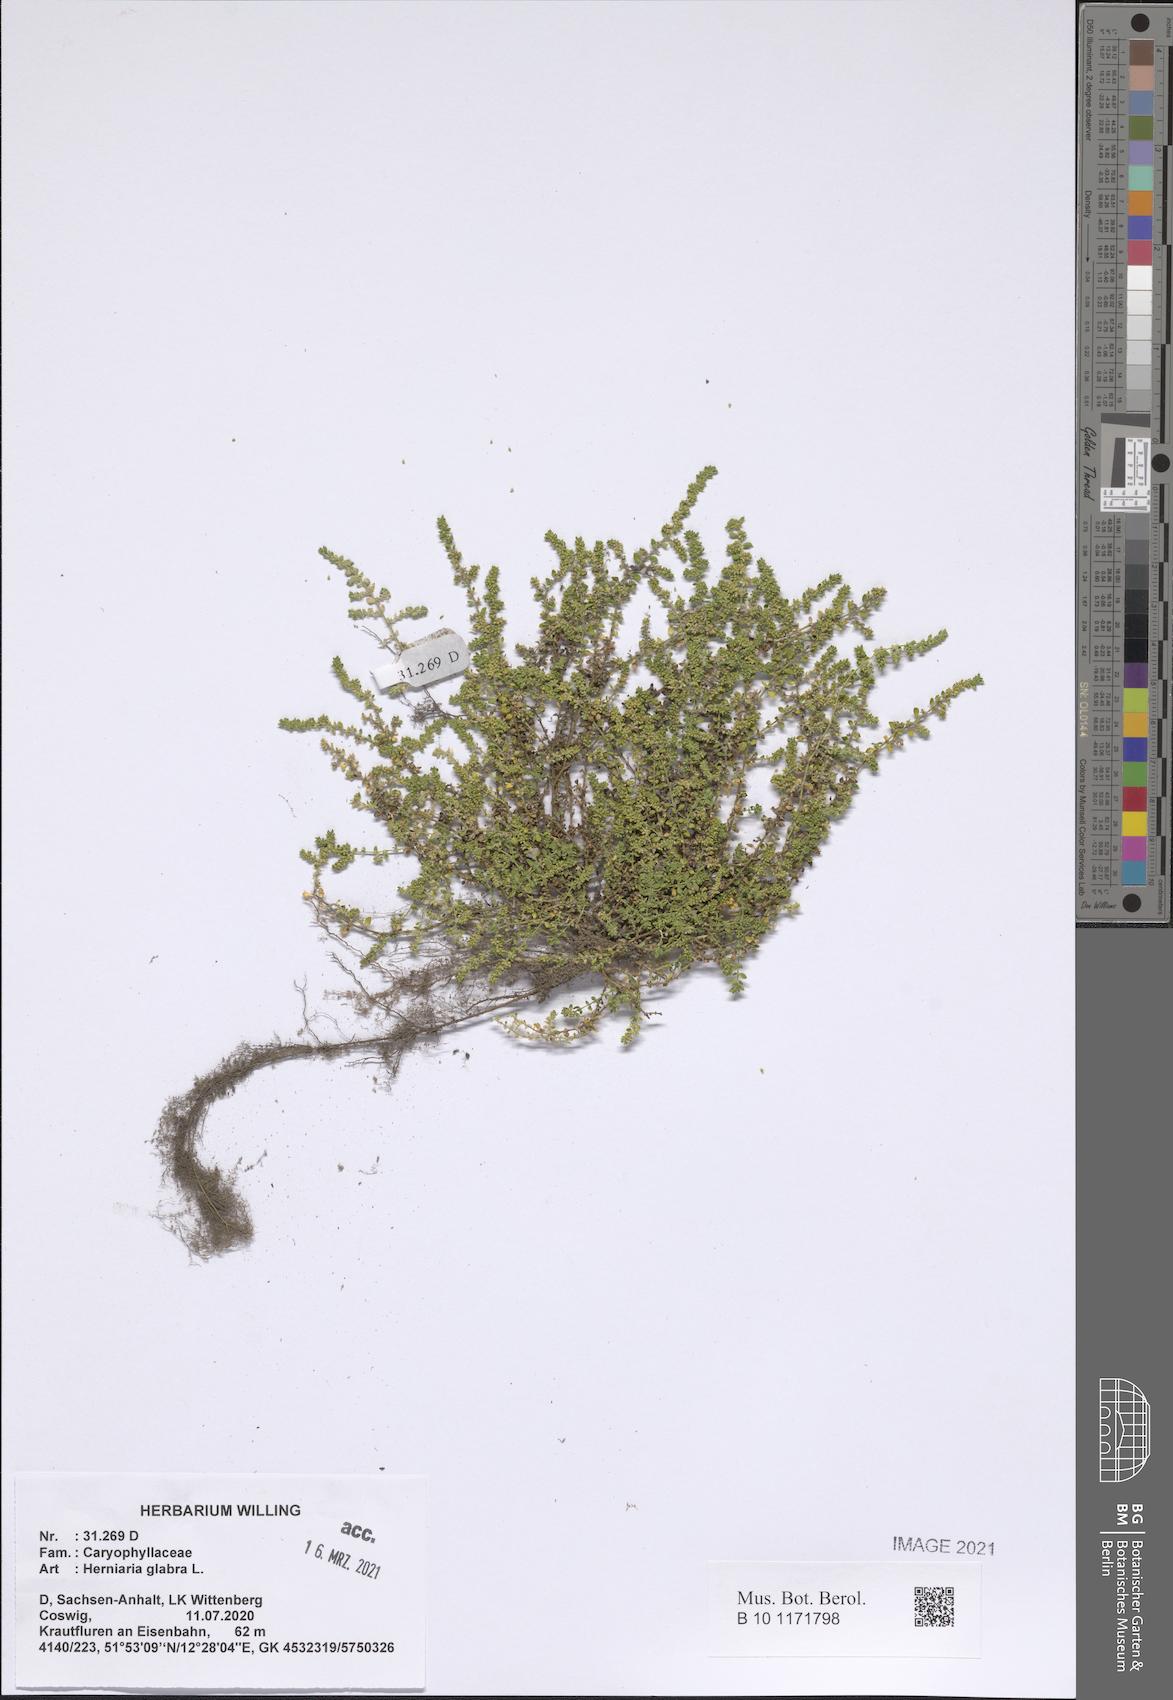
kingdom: Plantae
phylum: Tracheophyta
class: Magnoliopsida
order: Caryophyllales
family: Caryophyllaceae
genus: Herniaria
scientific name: Herniaria glabra
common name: Smooth rupturewort
